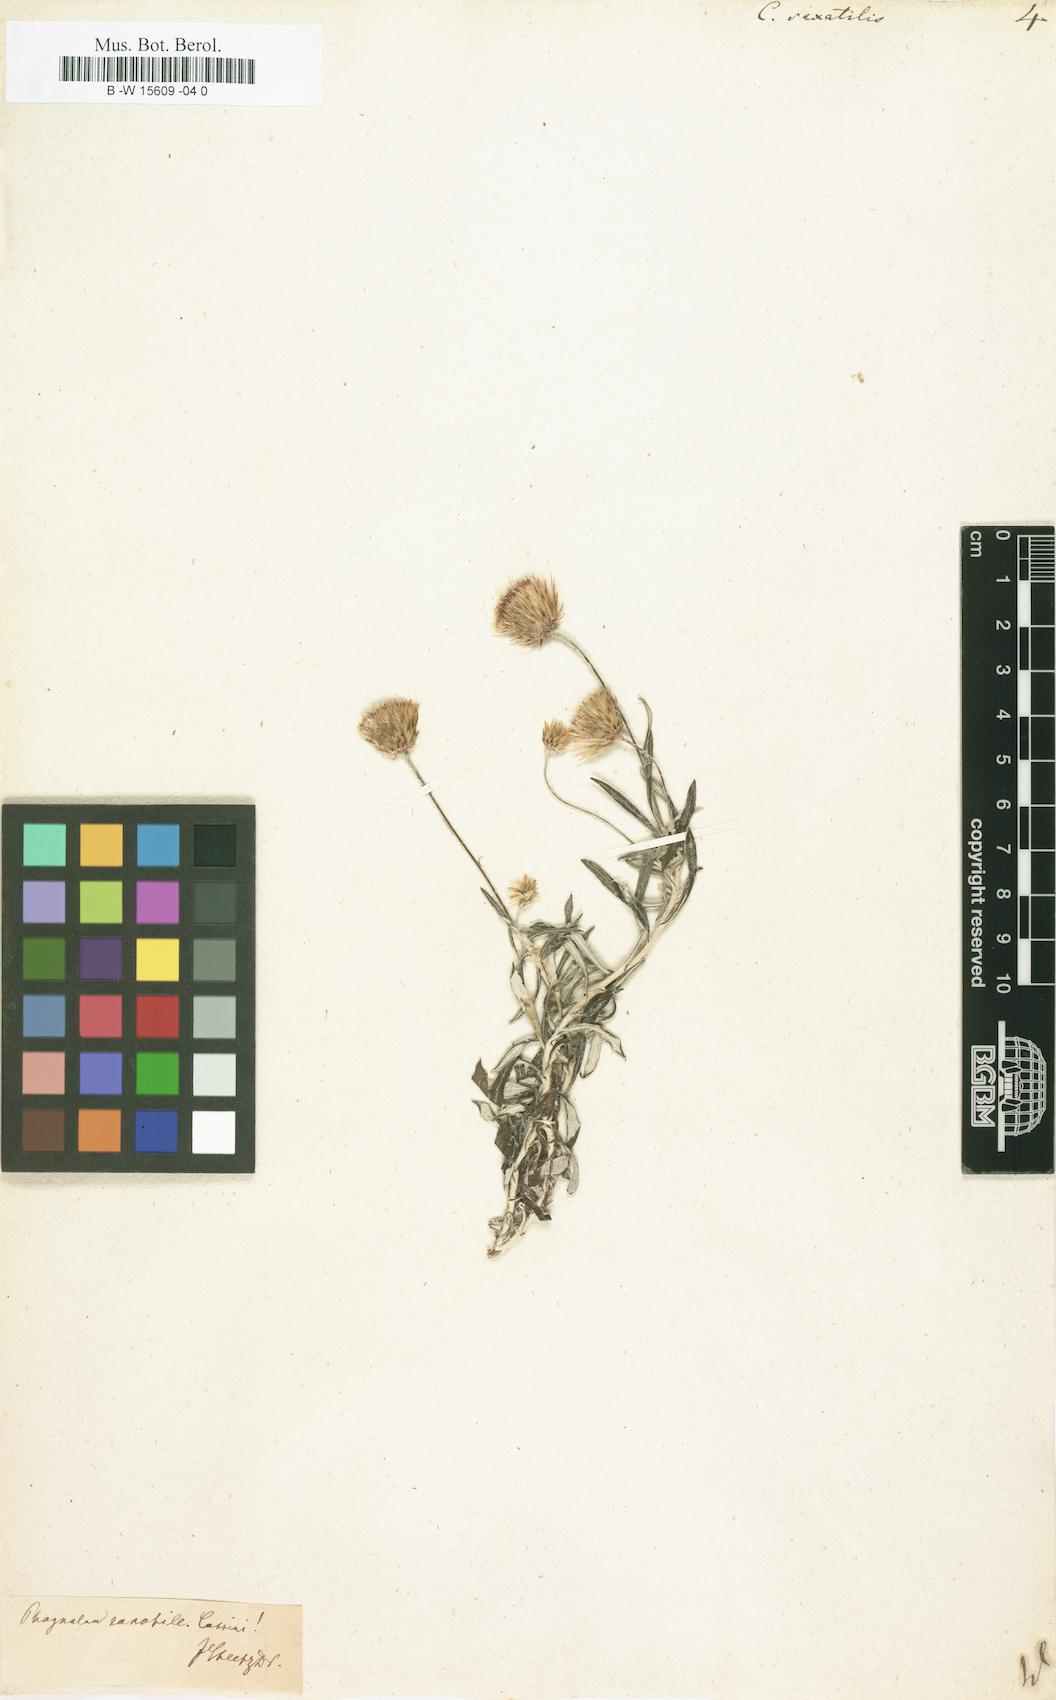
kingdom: Plantae
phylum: Tracheophyta
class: Magnoliopsida
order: Asterales
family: Asteraceae
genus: Phagnalon
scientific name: Phagnalon saxatile
